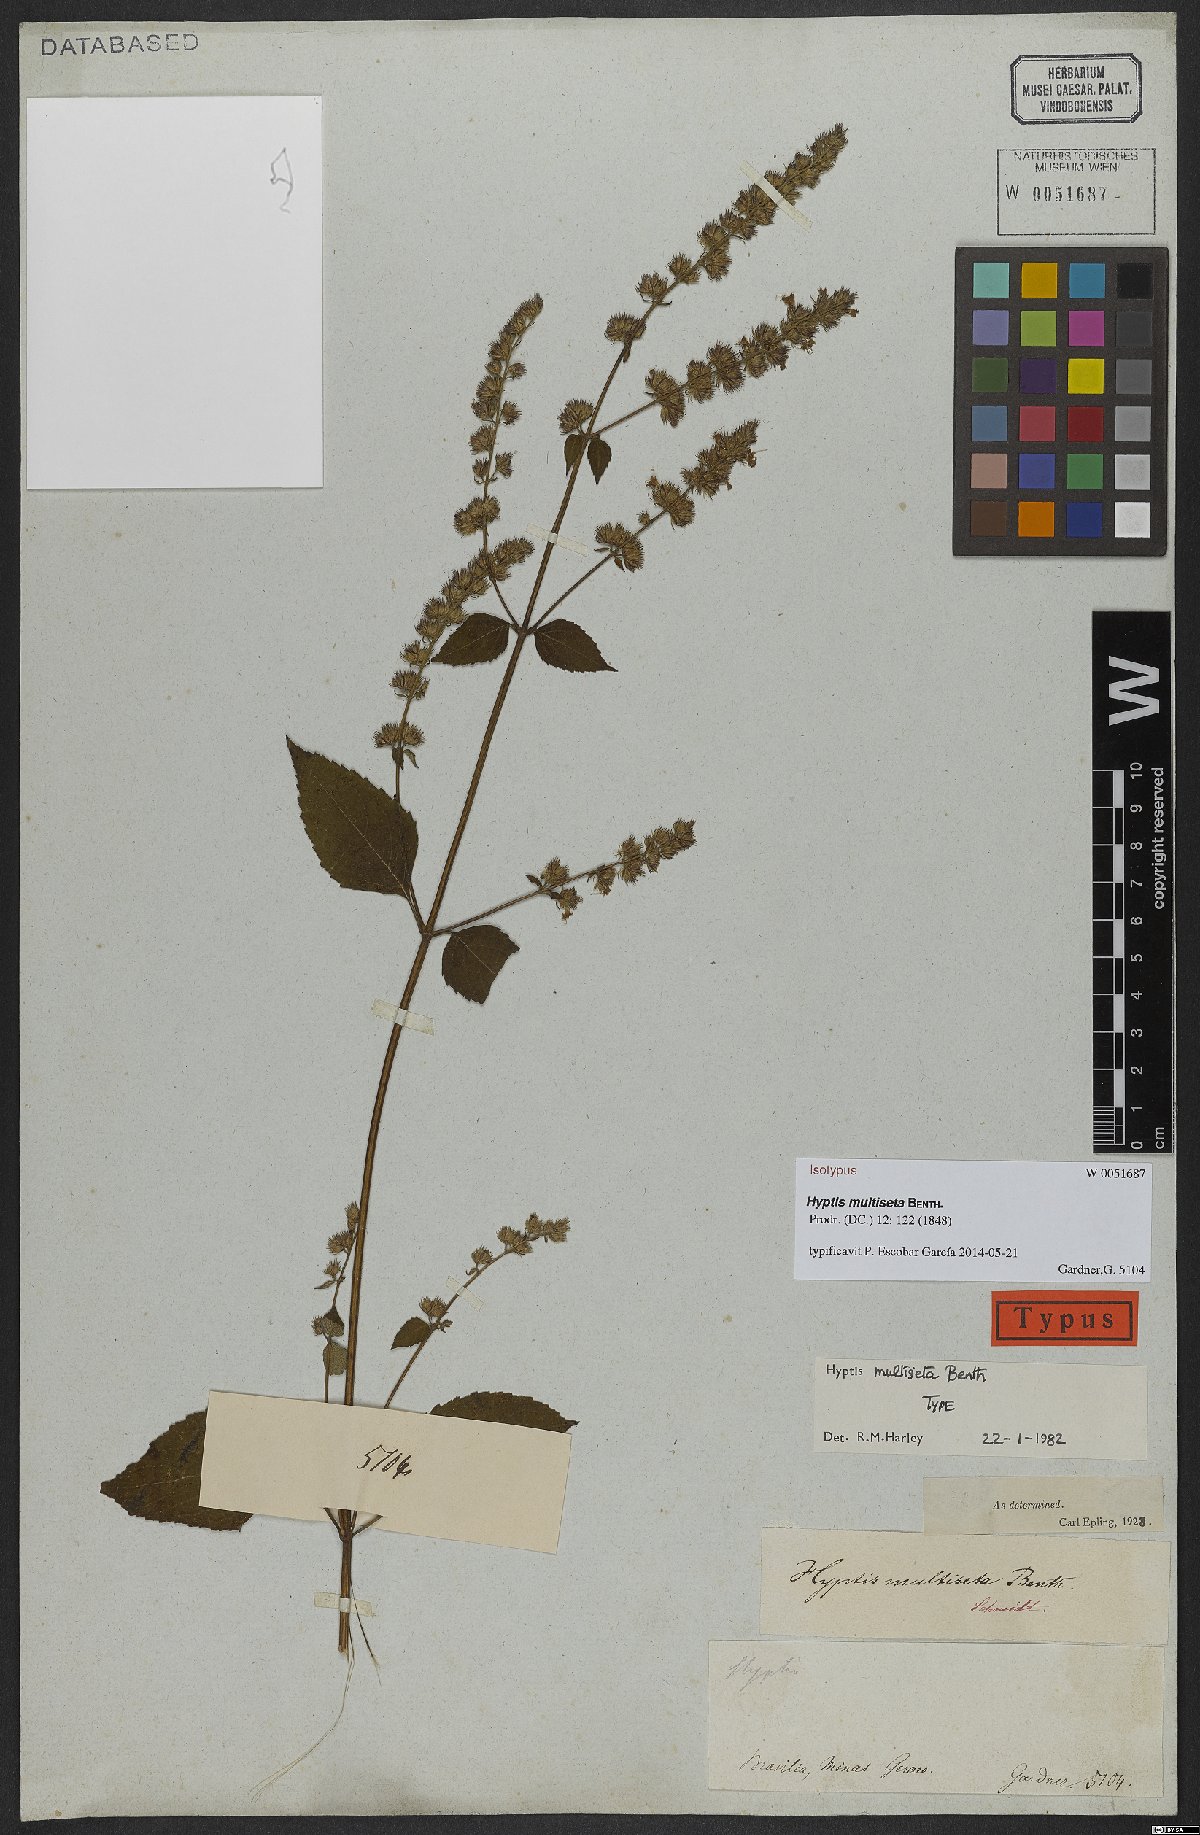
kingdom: Plantae
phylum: Tracheophyta
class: Magnoliopsida
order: Lamiales
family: Lamiaceae
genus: Cantinoa
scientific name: Cantinoa multiseta
